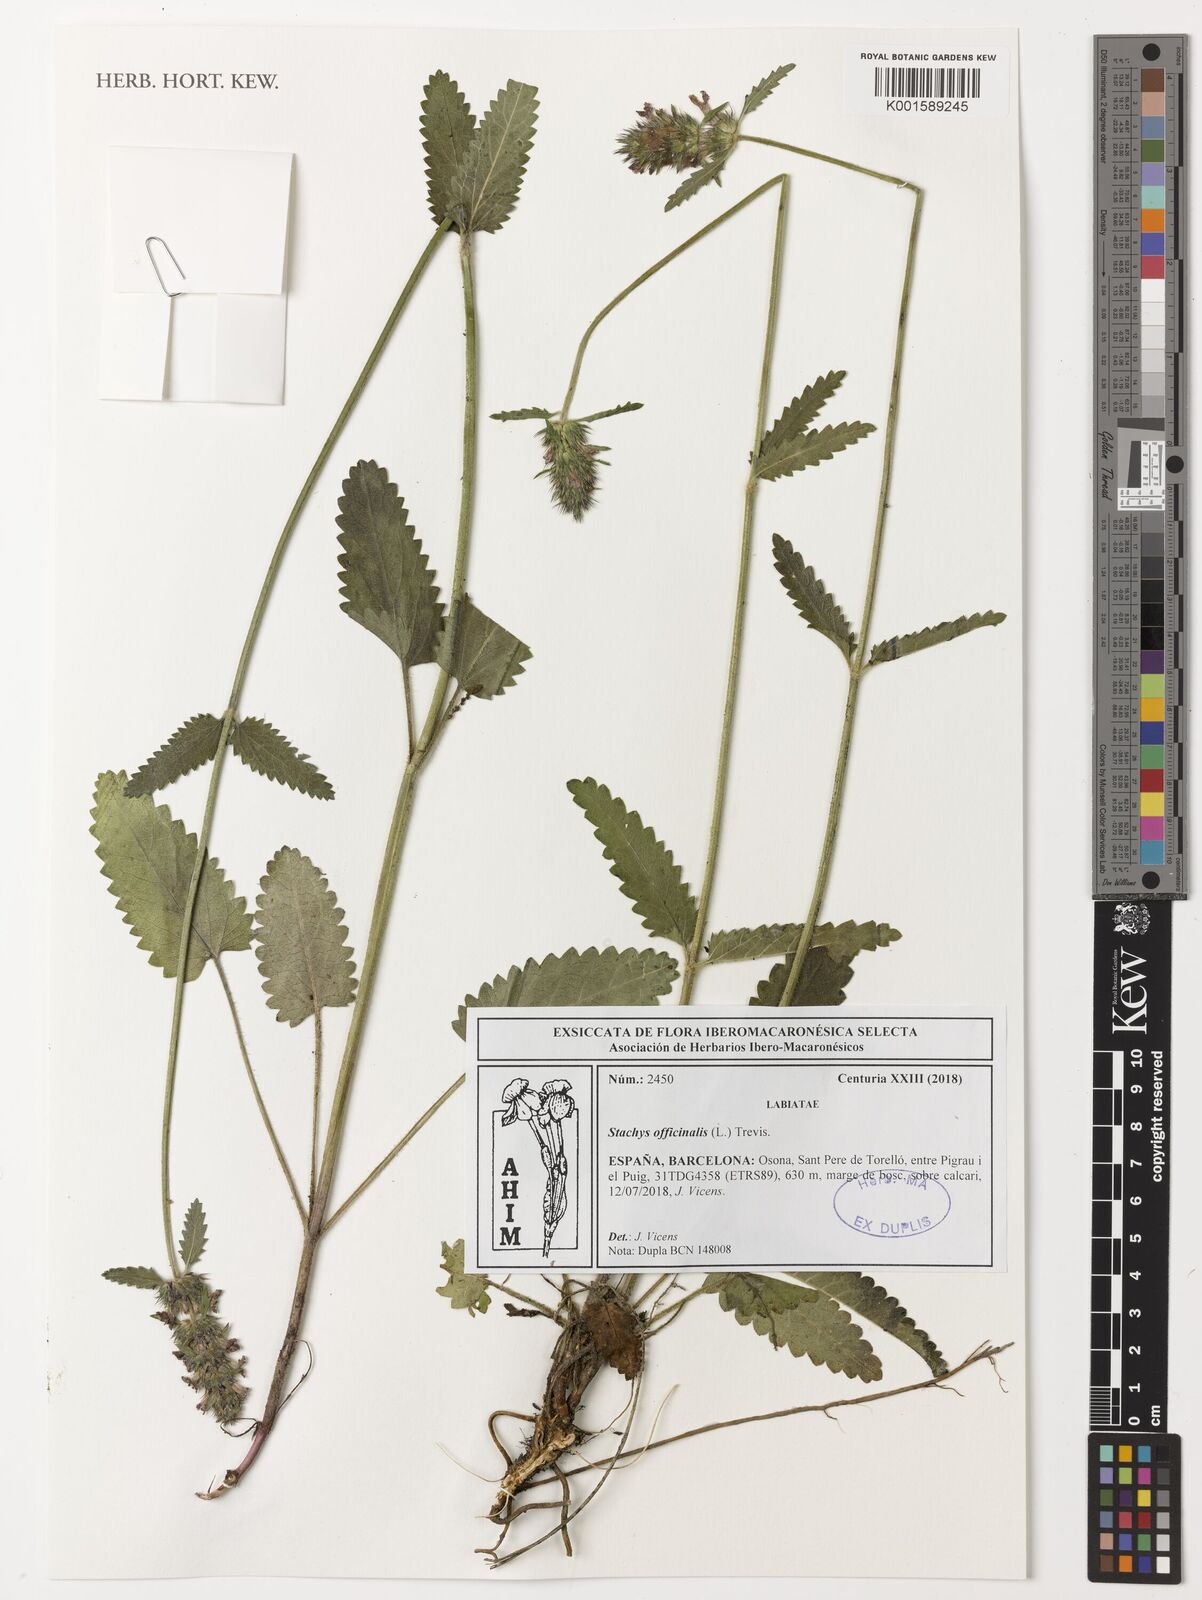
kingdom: Plantae
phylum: Tracheophyta
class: Magnoliopsida
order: Lamiales
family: Lamiaceae
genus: Betonica
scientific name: Betonica officinalis
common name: Bishop's-wort
